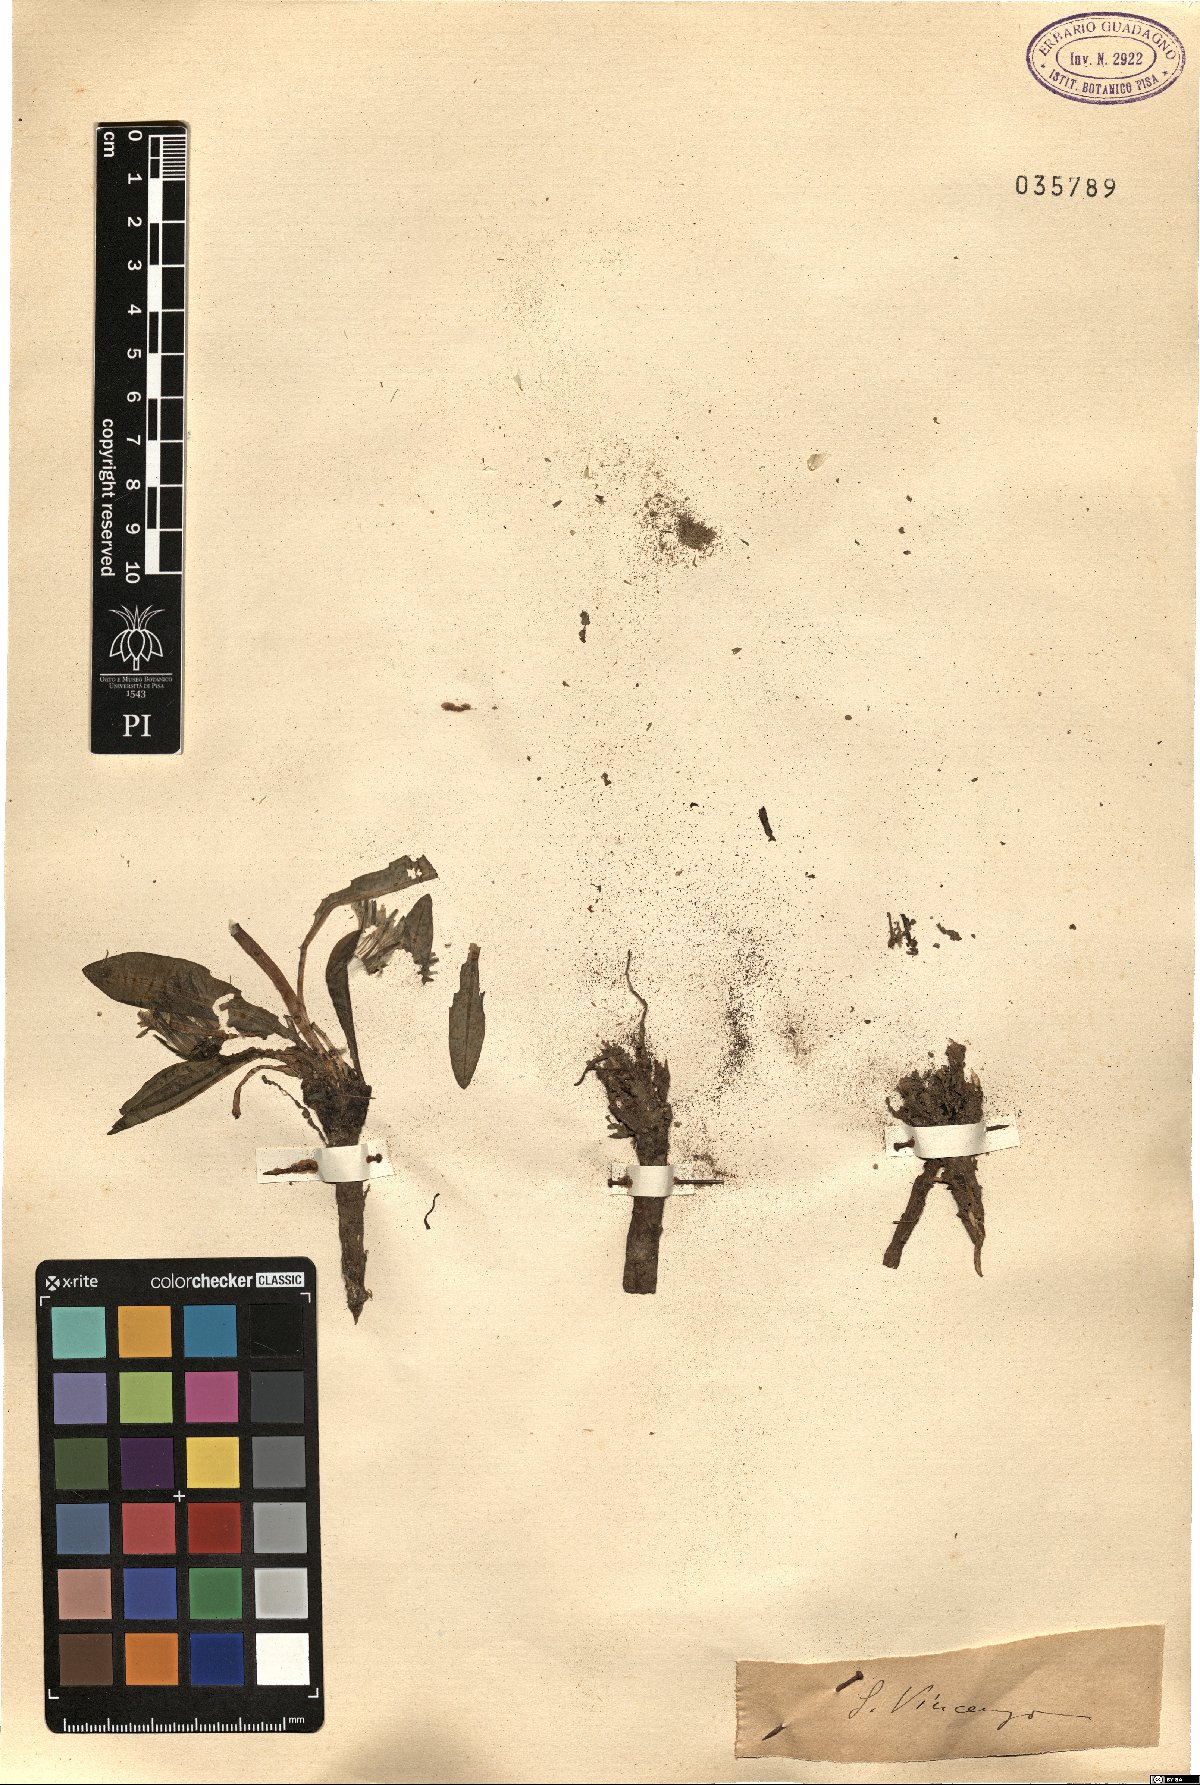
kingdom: Plantae
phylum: Tracheophyta
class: Magnoliopsida
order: Asterales
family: Asteraceae
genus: Taraxacum
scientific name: Taraxacum
